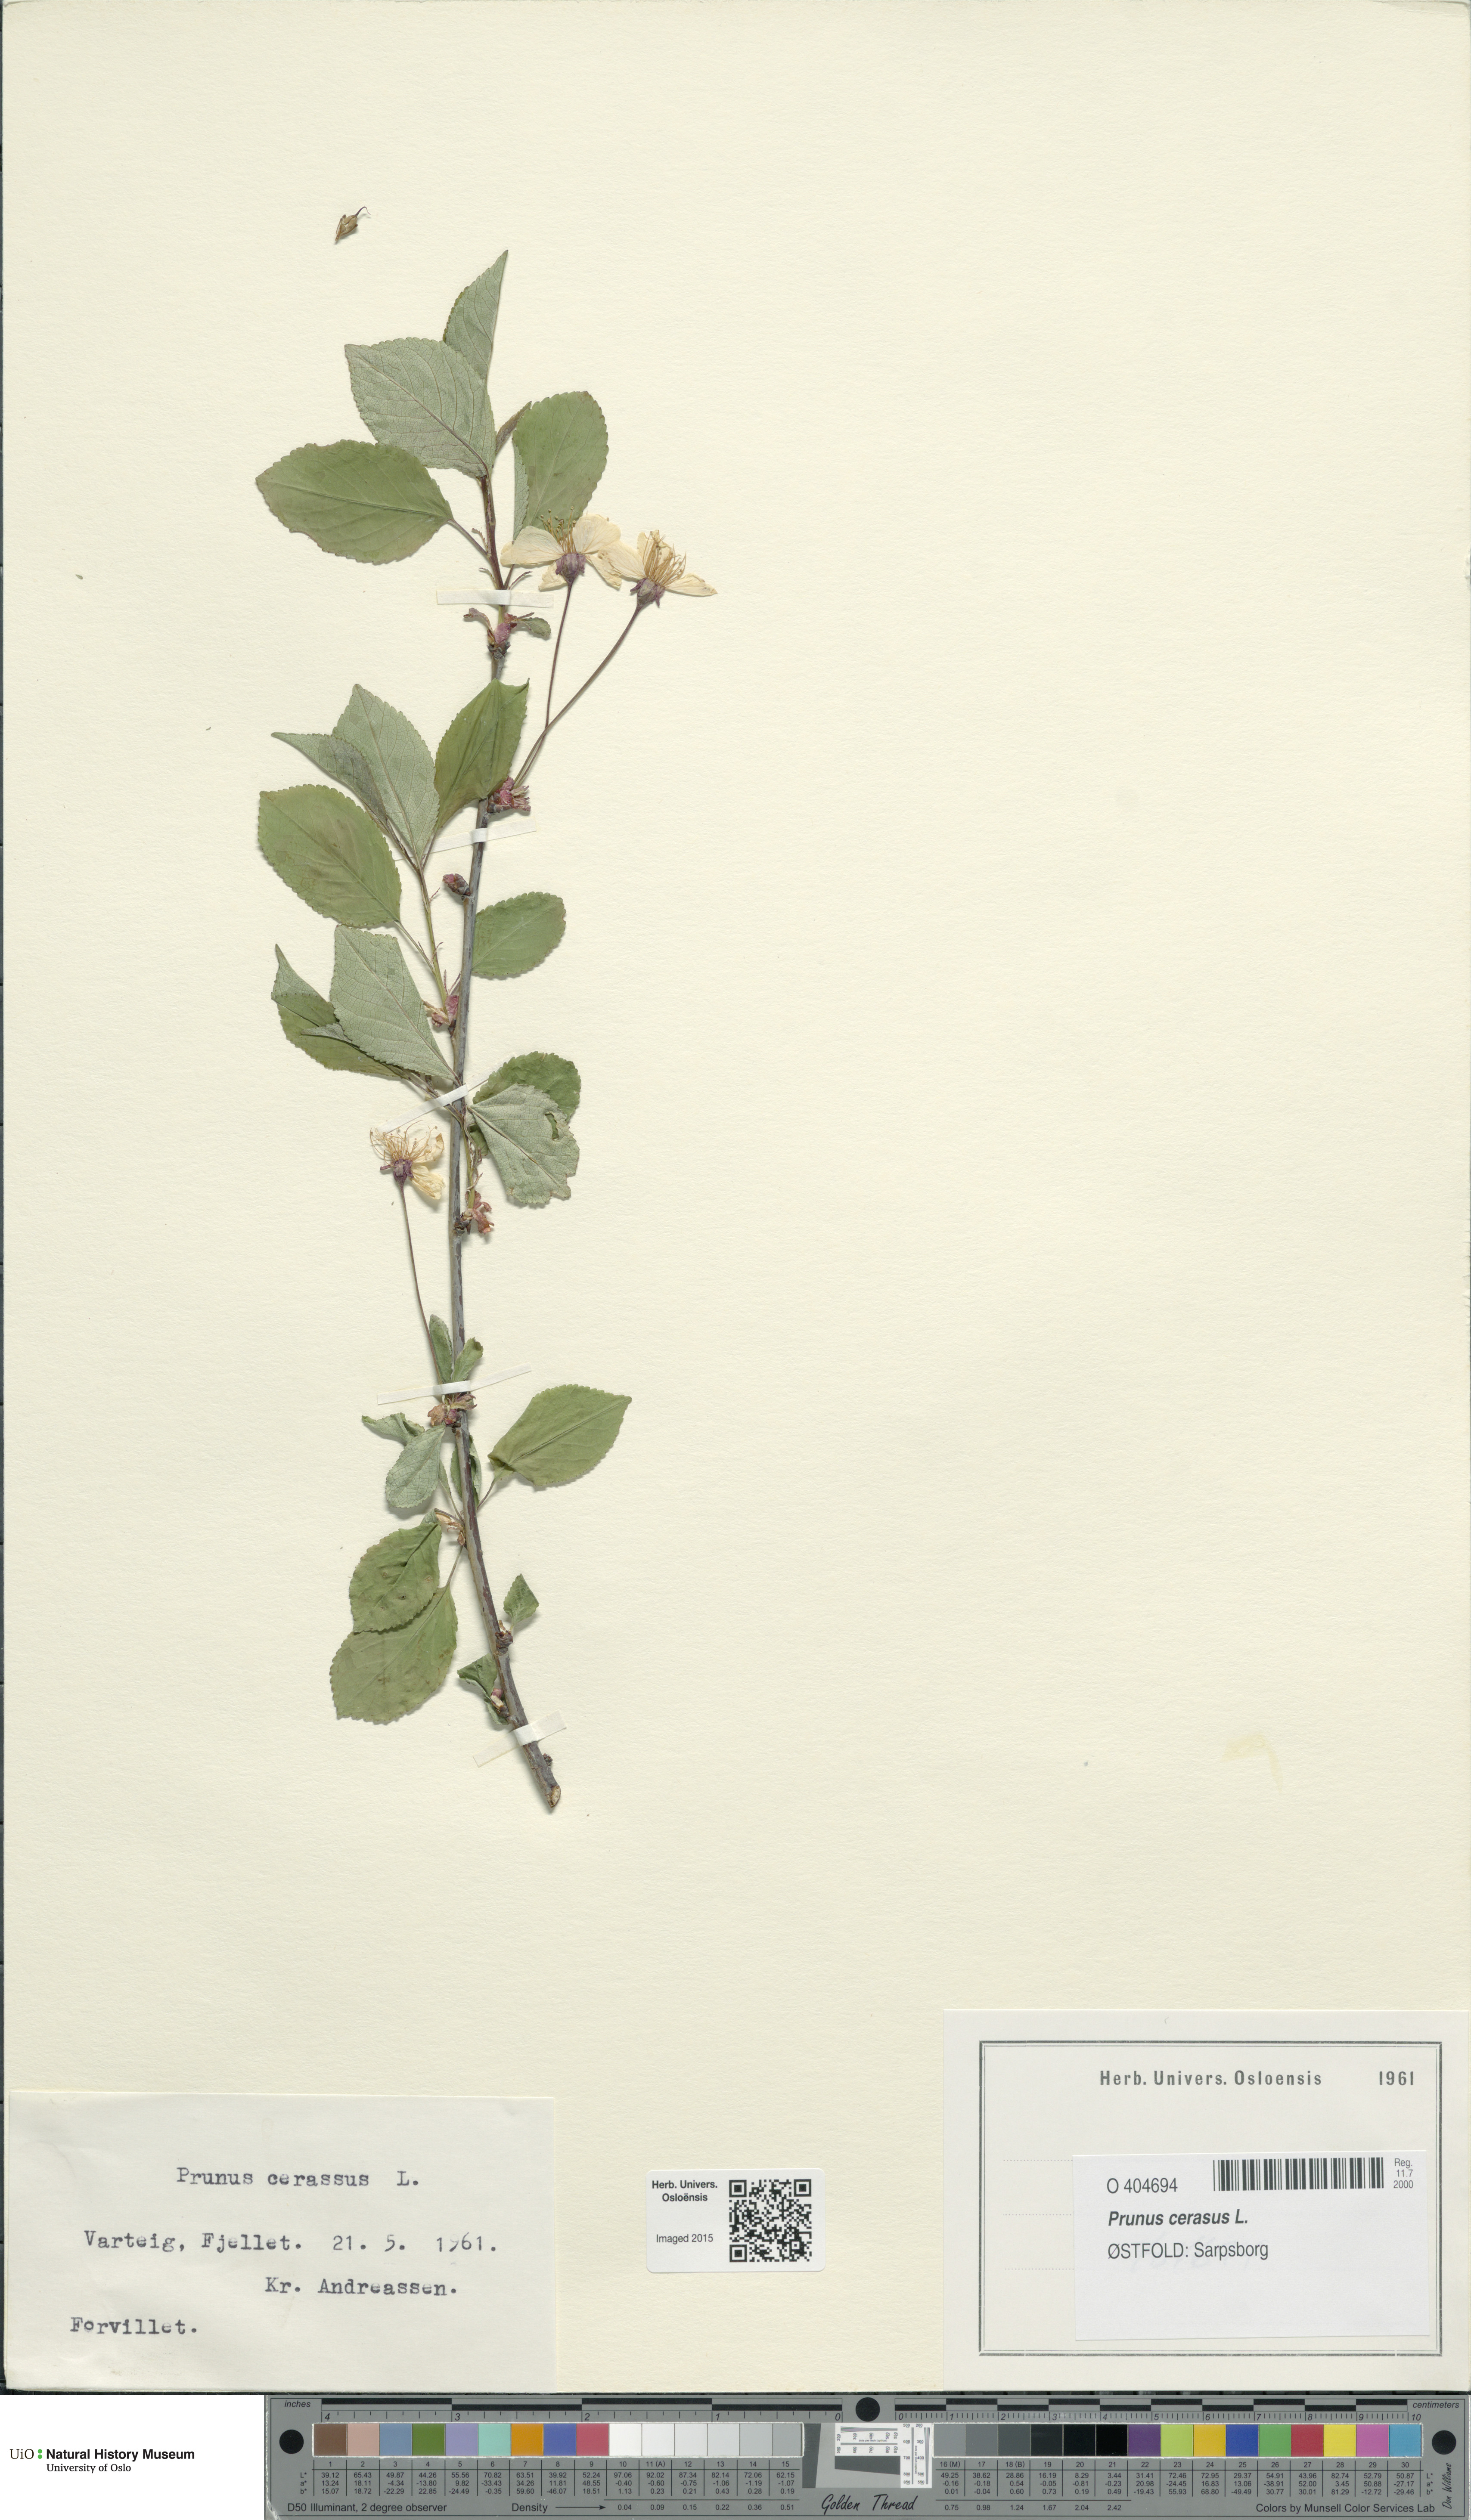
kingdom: Plantae
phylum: Tracheophyta
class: Magnoliopsida
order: Rosales
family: Rosaceae
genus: Prunus
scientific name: Prunus cerasus
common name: Morello cherry
